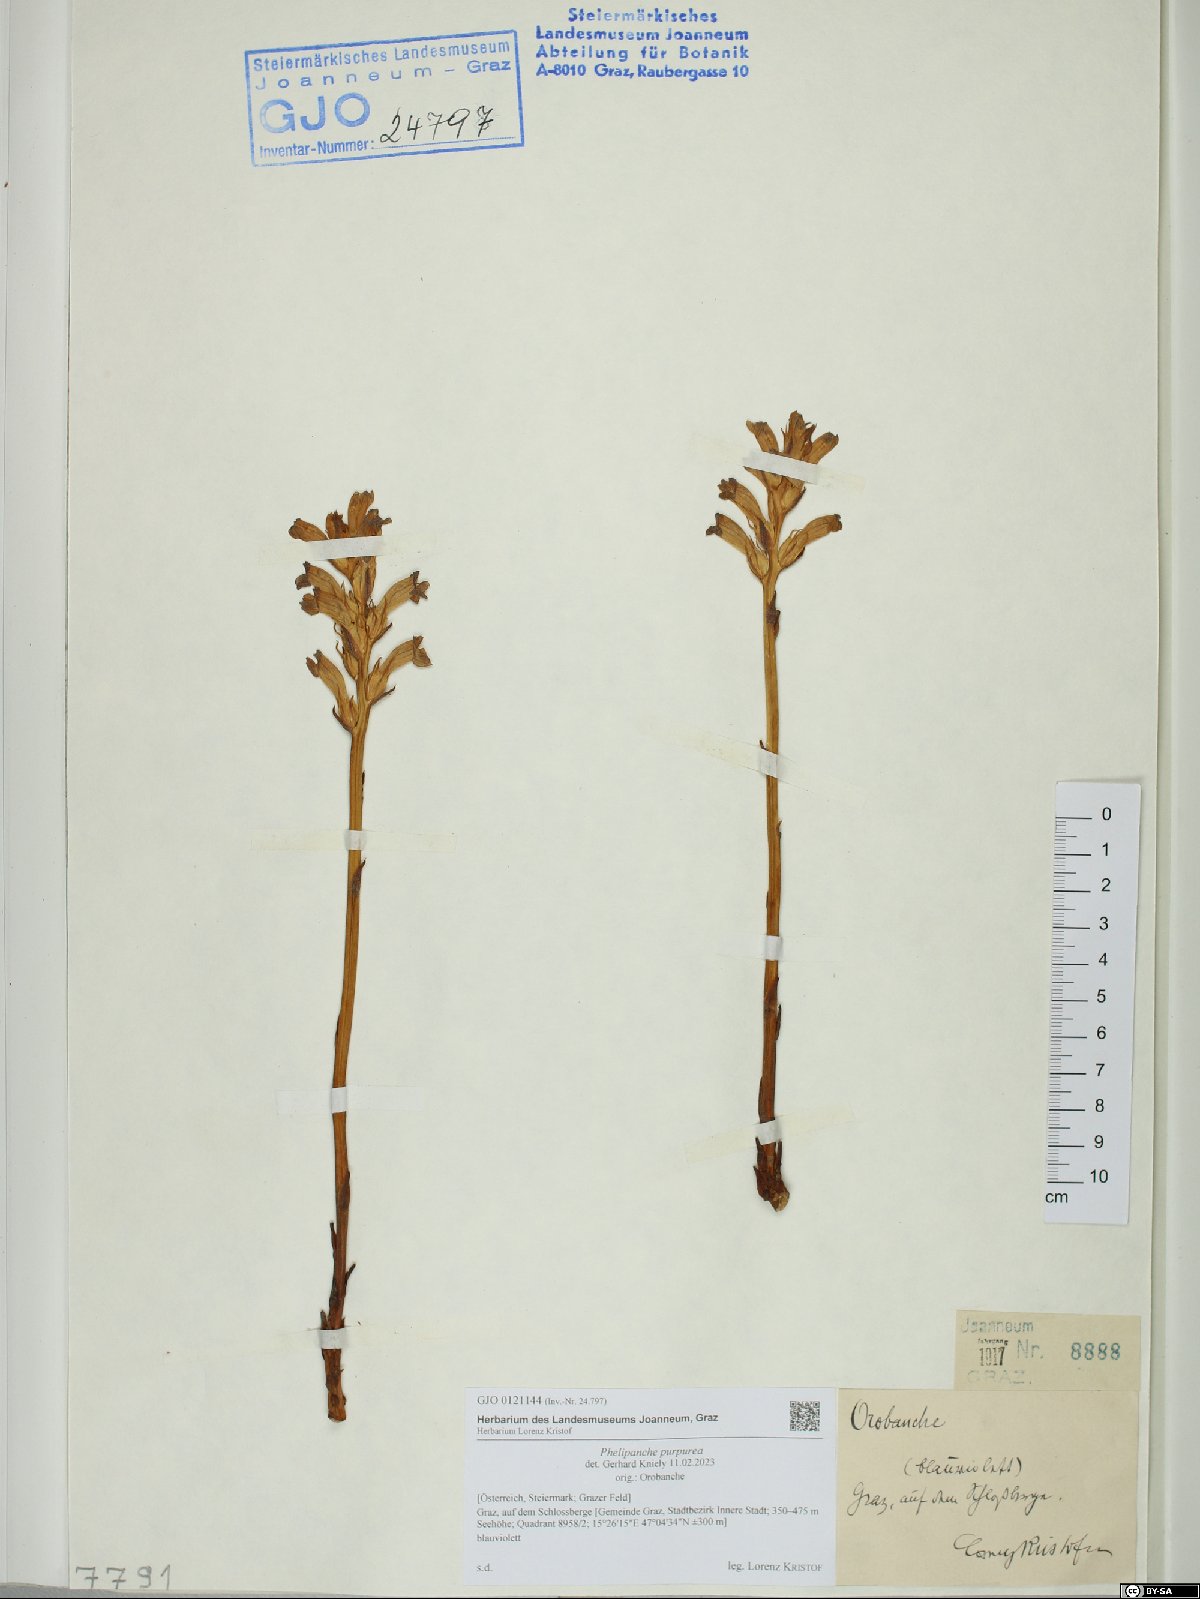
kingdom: Plantae
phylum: Tracheophyta
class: Magnoliopsida
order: Lamiales
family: Orobanchaceae
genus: Phelipanche
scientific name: Phelipanche purpurea
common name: Purple broomrape
